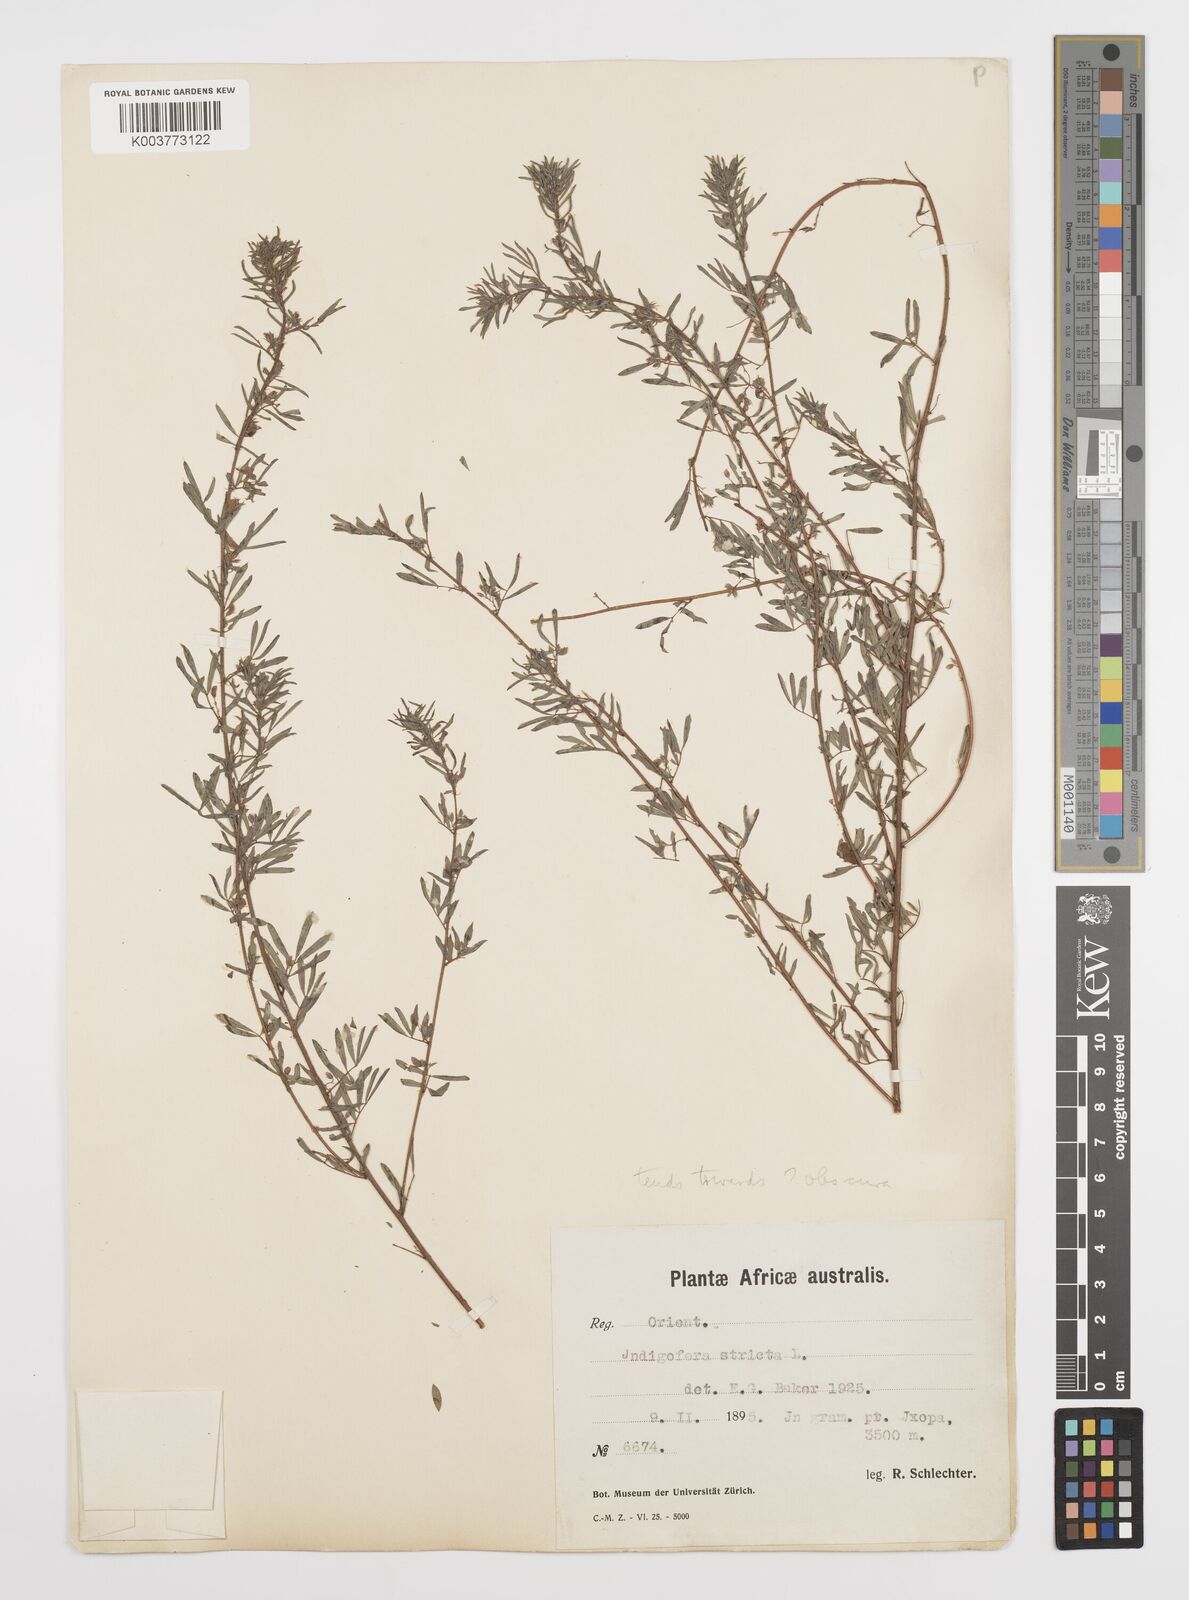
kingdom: Plantae
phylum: Tracheophyta
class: Magnoliopsida
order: Fabales
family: Fabaceae
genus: Indigofera
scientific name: Indigofera
